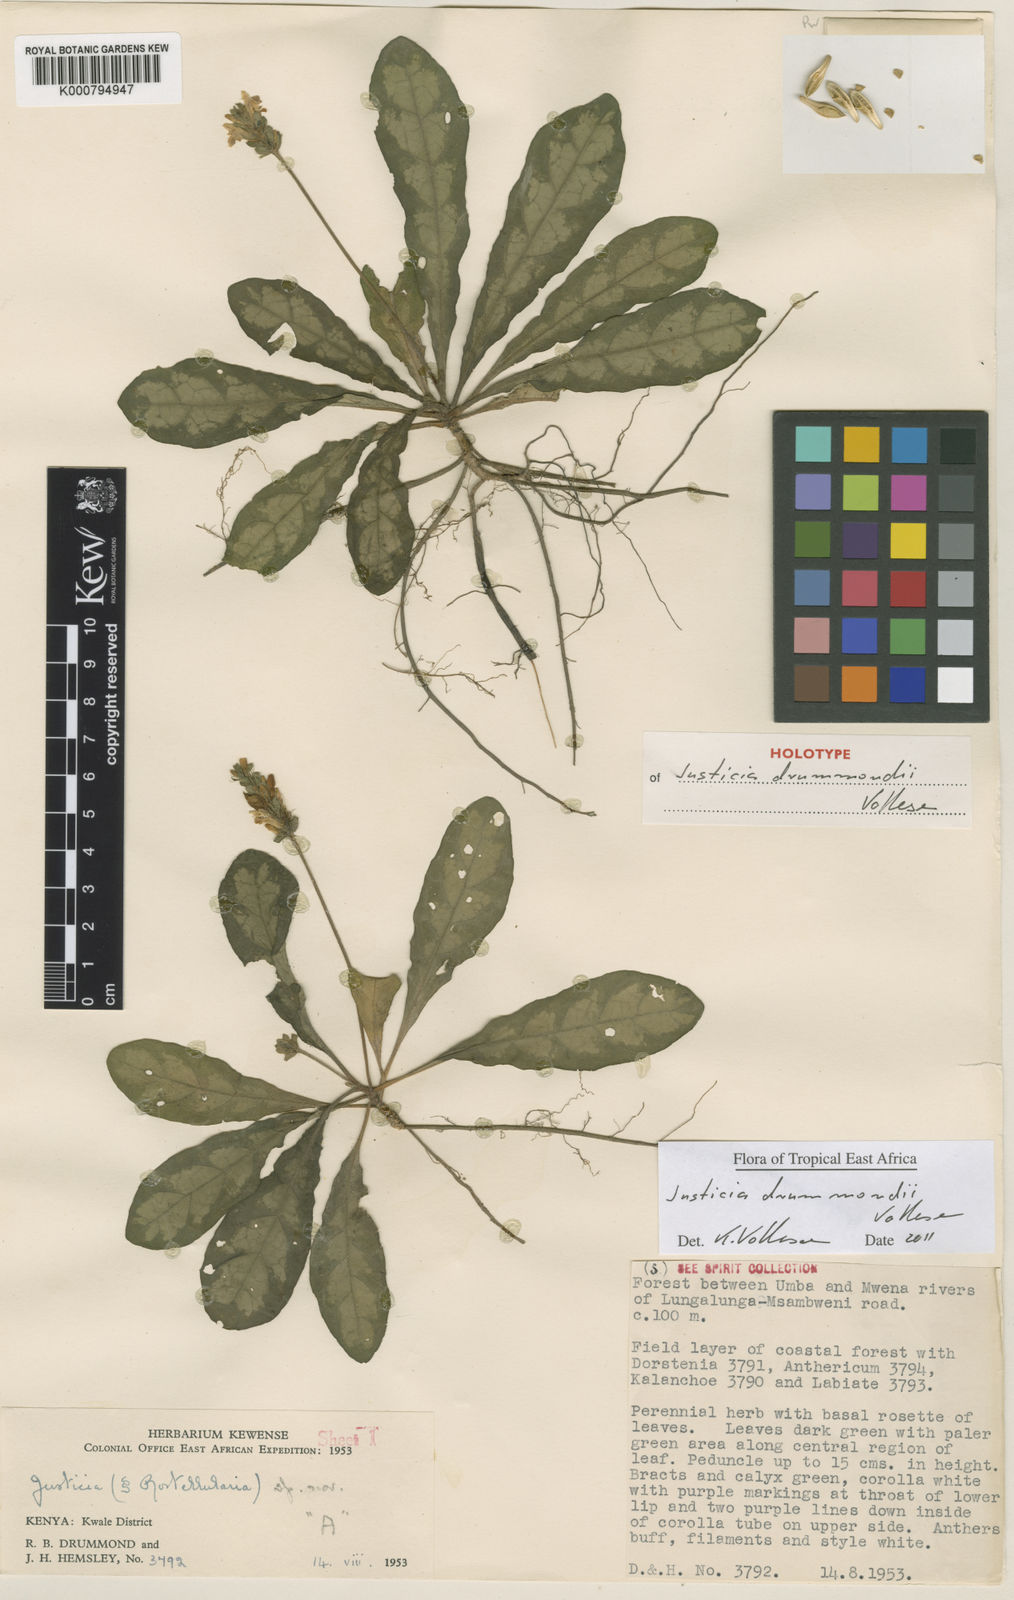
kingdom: Plantae
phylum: Tracheophyta
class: Magnoliopsida
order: Lamiales
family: Acanthaceae
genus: Justicia
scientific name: Justicia drummondii
